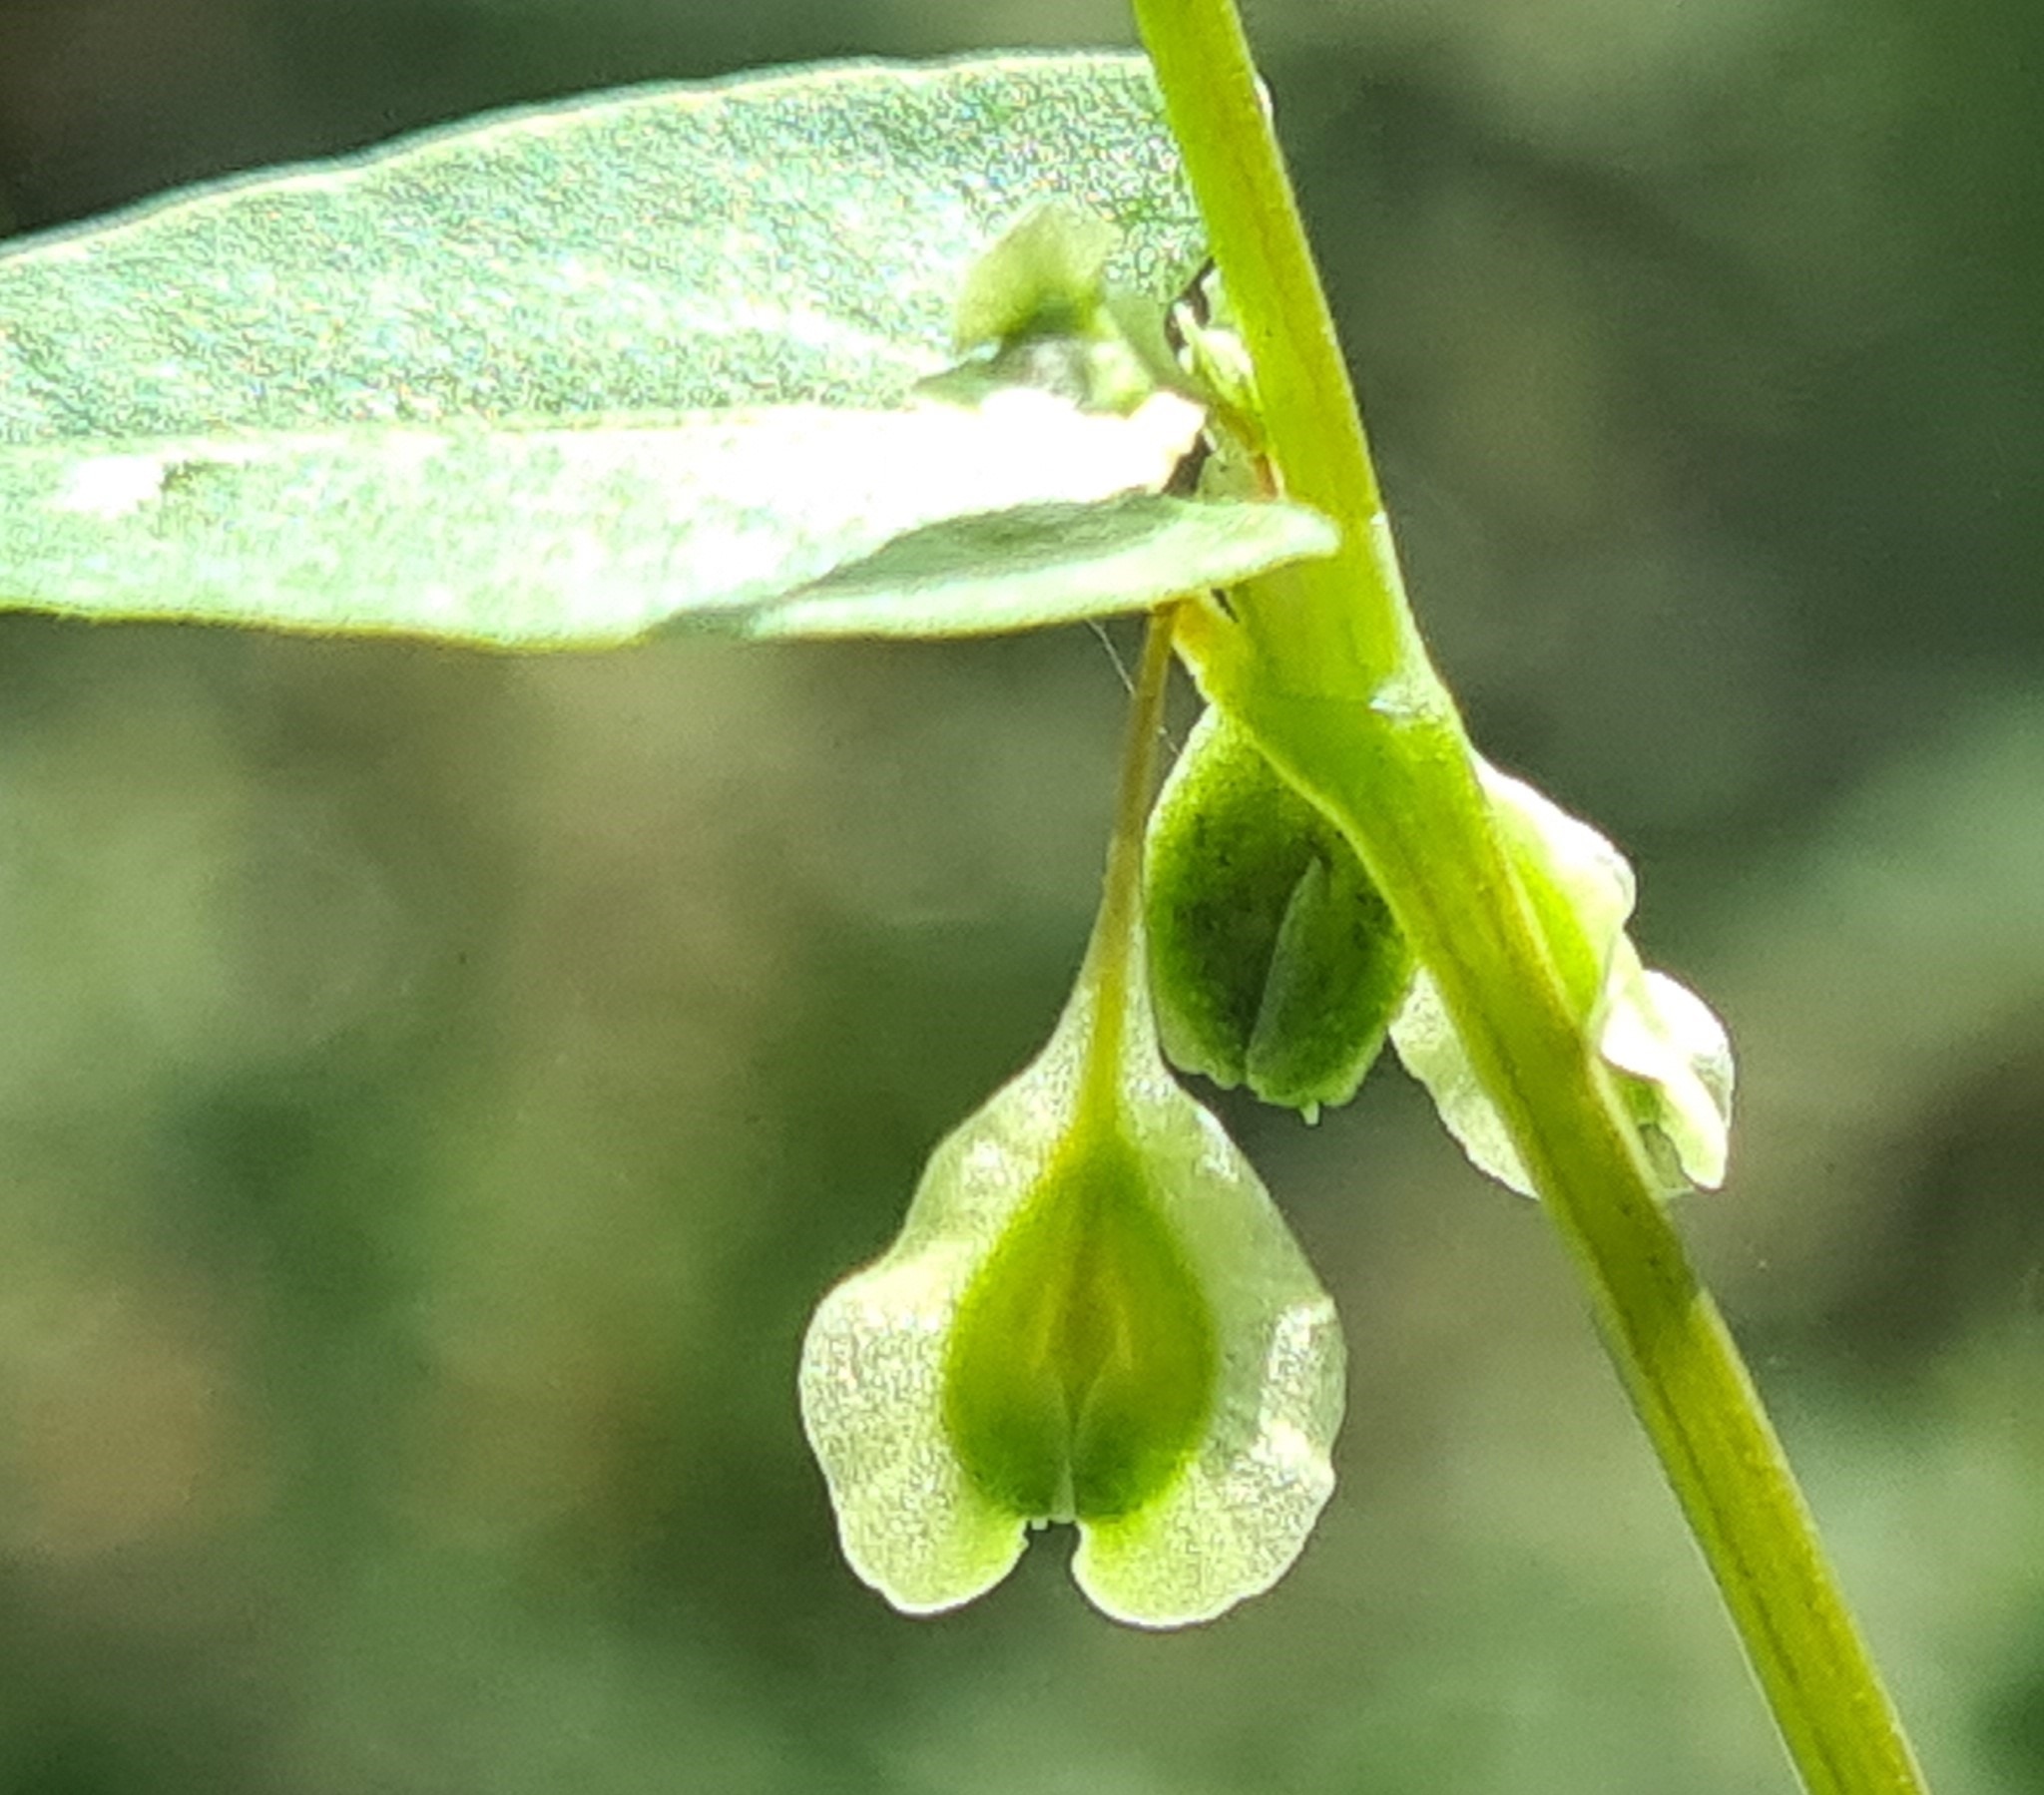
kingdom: Plantae
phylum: Tracheophyta
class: Magnoliopsida
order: Caryophyllales
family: Polygonaceae
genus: Fallopia
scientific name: Fallopia dumetorum
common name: Vinge-pileurt
